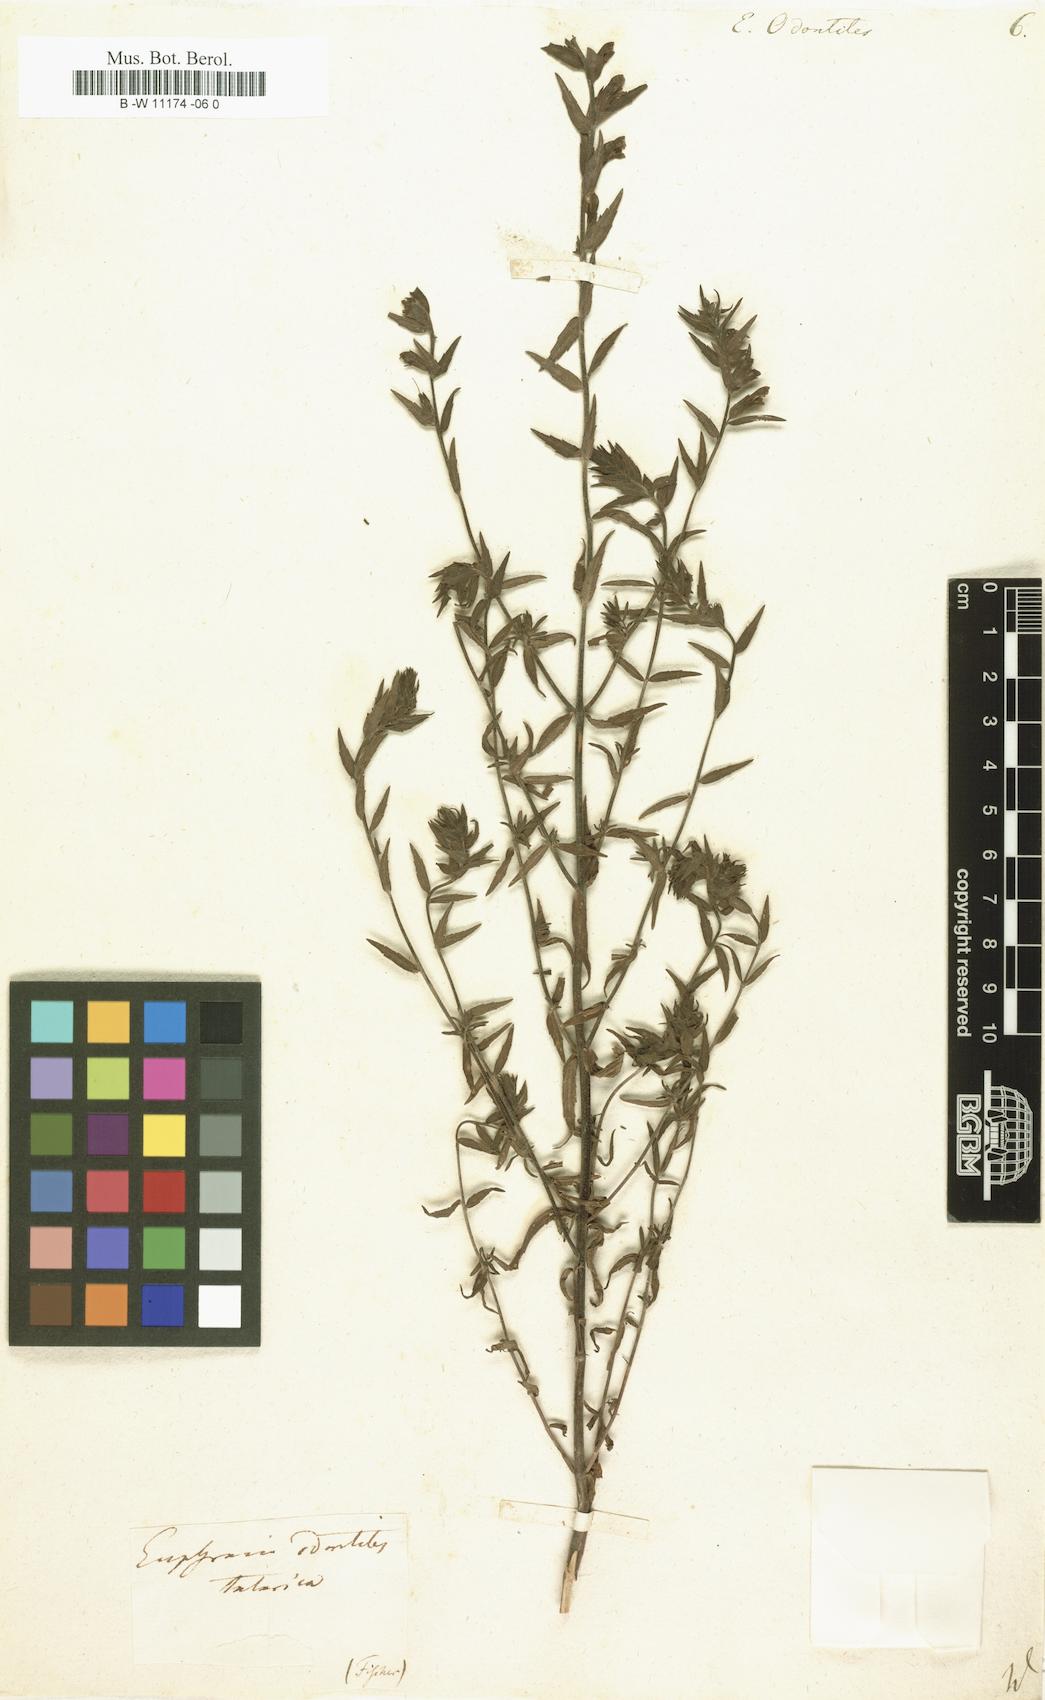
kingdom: Plantae
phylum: Tracheophyta
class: Magnoliopsida
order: Lamiales
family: Orobanchaceae
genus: Odontites
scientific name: Odontites vulgaris
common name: Broomrape
